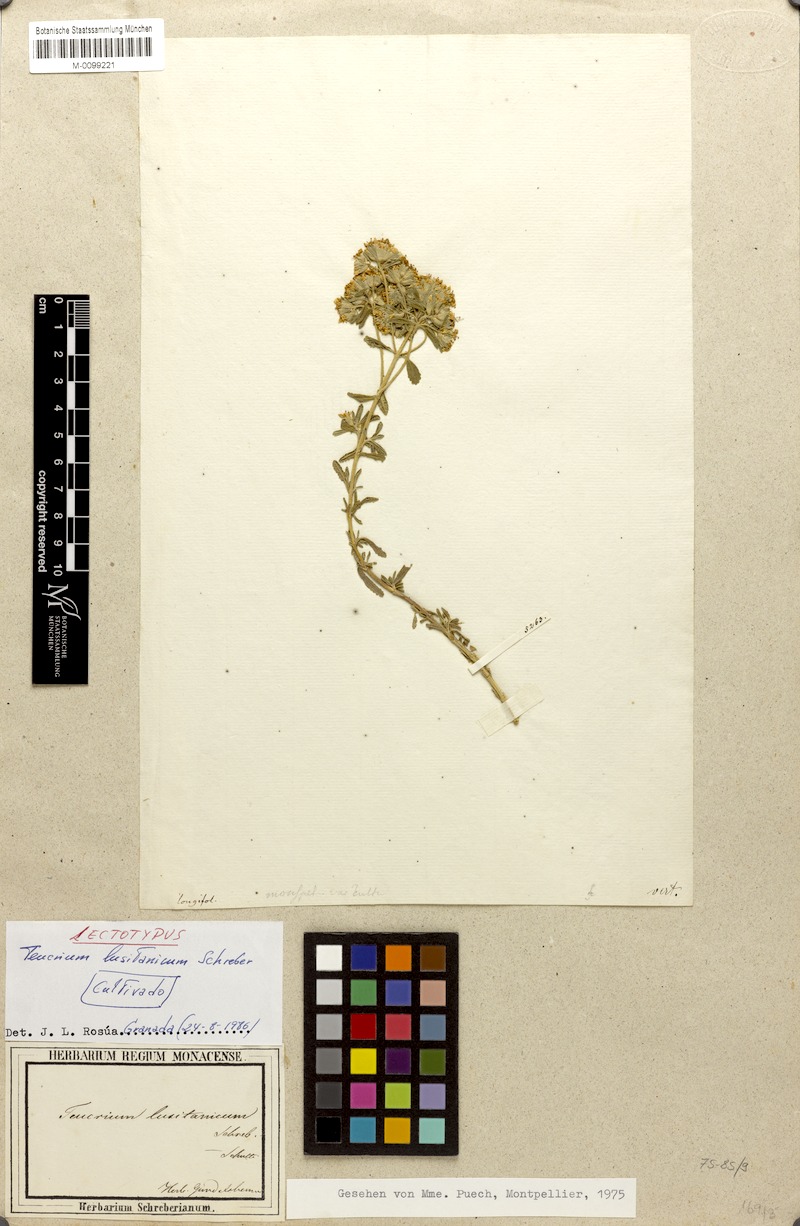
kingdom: Plantae
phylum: Tracheophyta
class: Magnoliopsida
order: Lamiales
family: Lamiaceae
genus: Teucrium
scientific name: Teucrium lusitanicum
